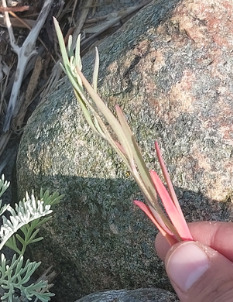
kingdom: Plantae
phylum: Tracheophyta
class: Magnoliopsida
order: Caryophyllales
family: Amaranthaceae
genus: Atriplex
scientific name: Atriplex littoralis
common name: Strand-mælde
